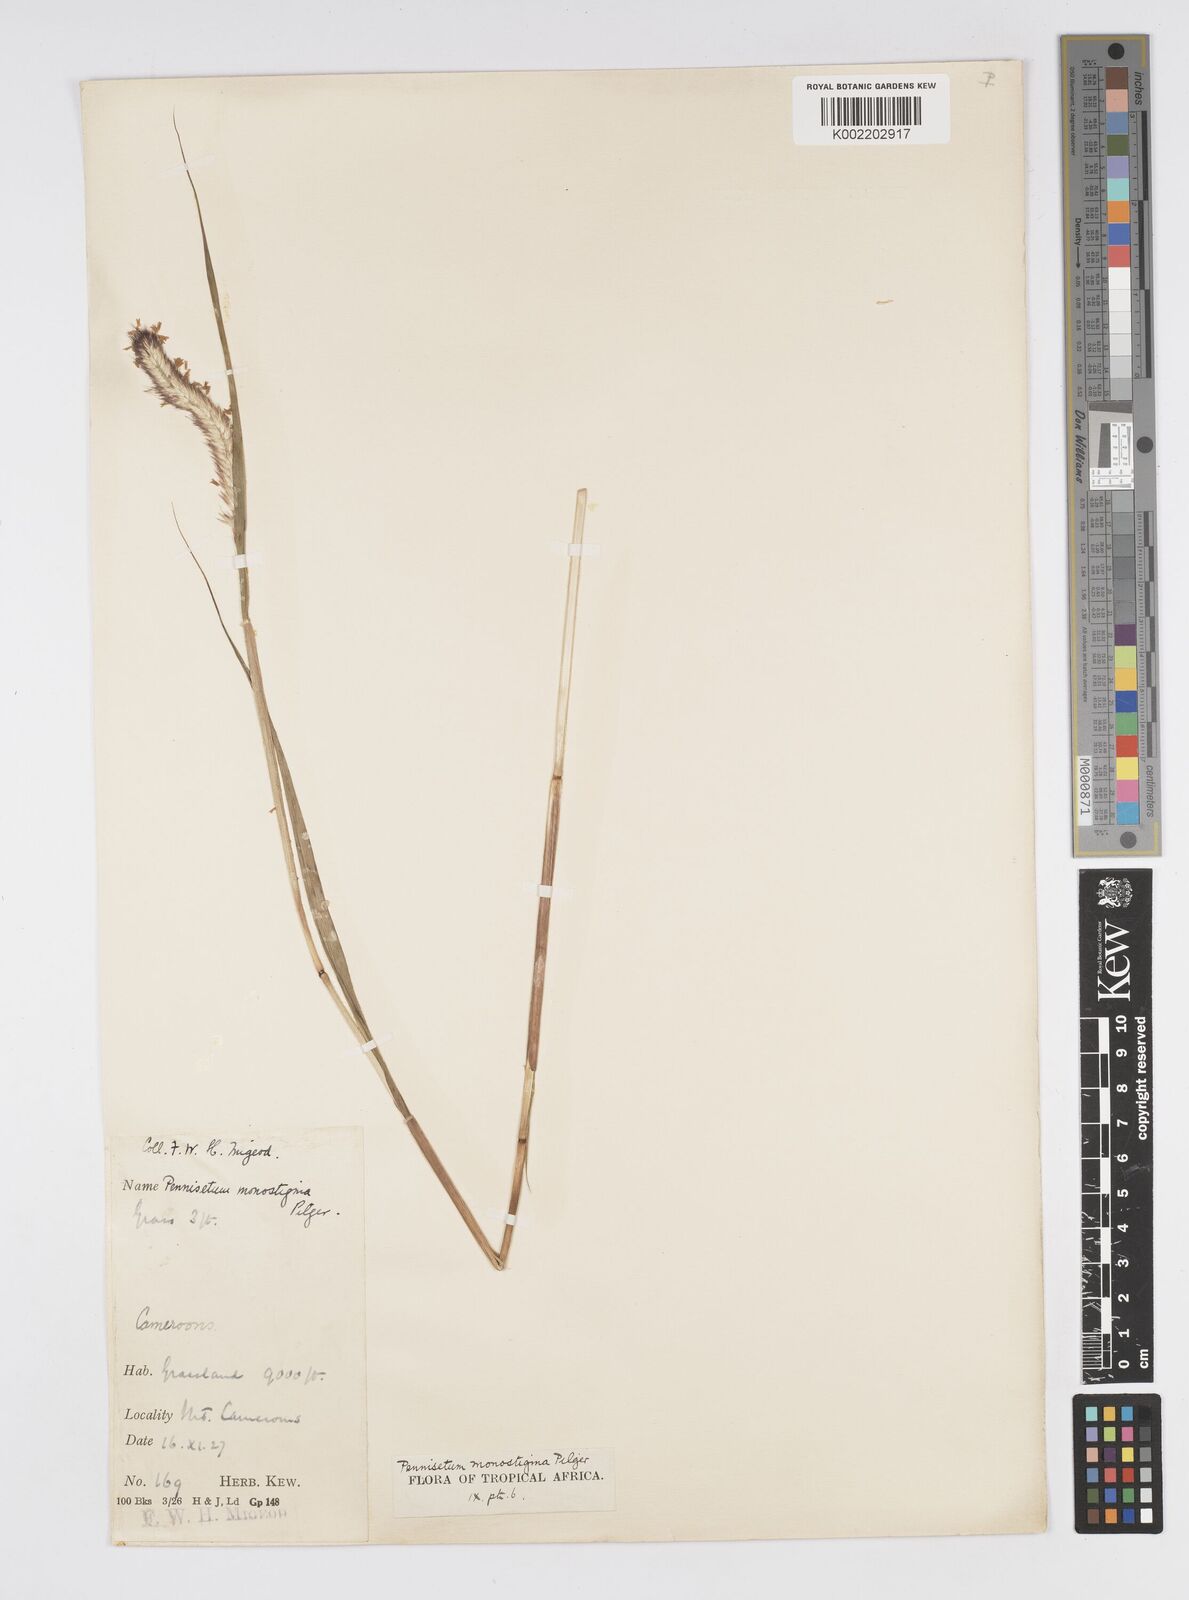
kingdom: Plantae
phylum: Tracheophyta
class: Liliopsida
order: Poales
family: Poaceae
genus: Cenchrus
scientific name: Cenchrus monostigma
